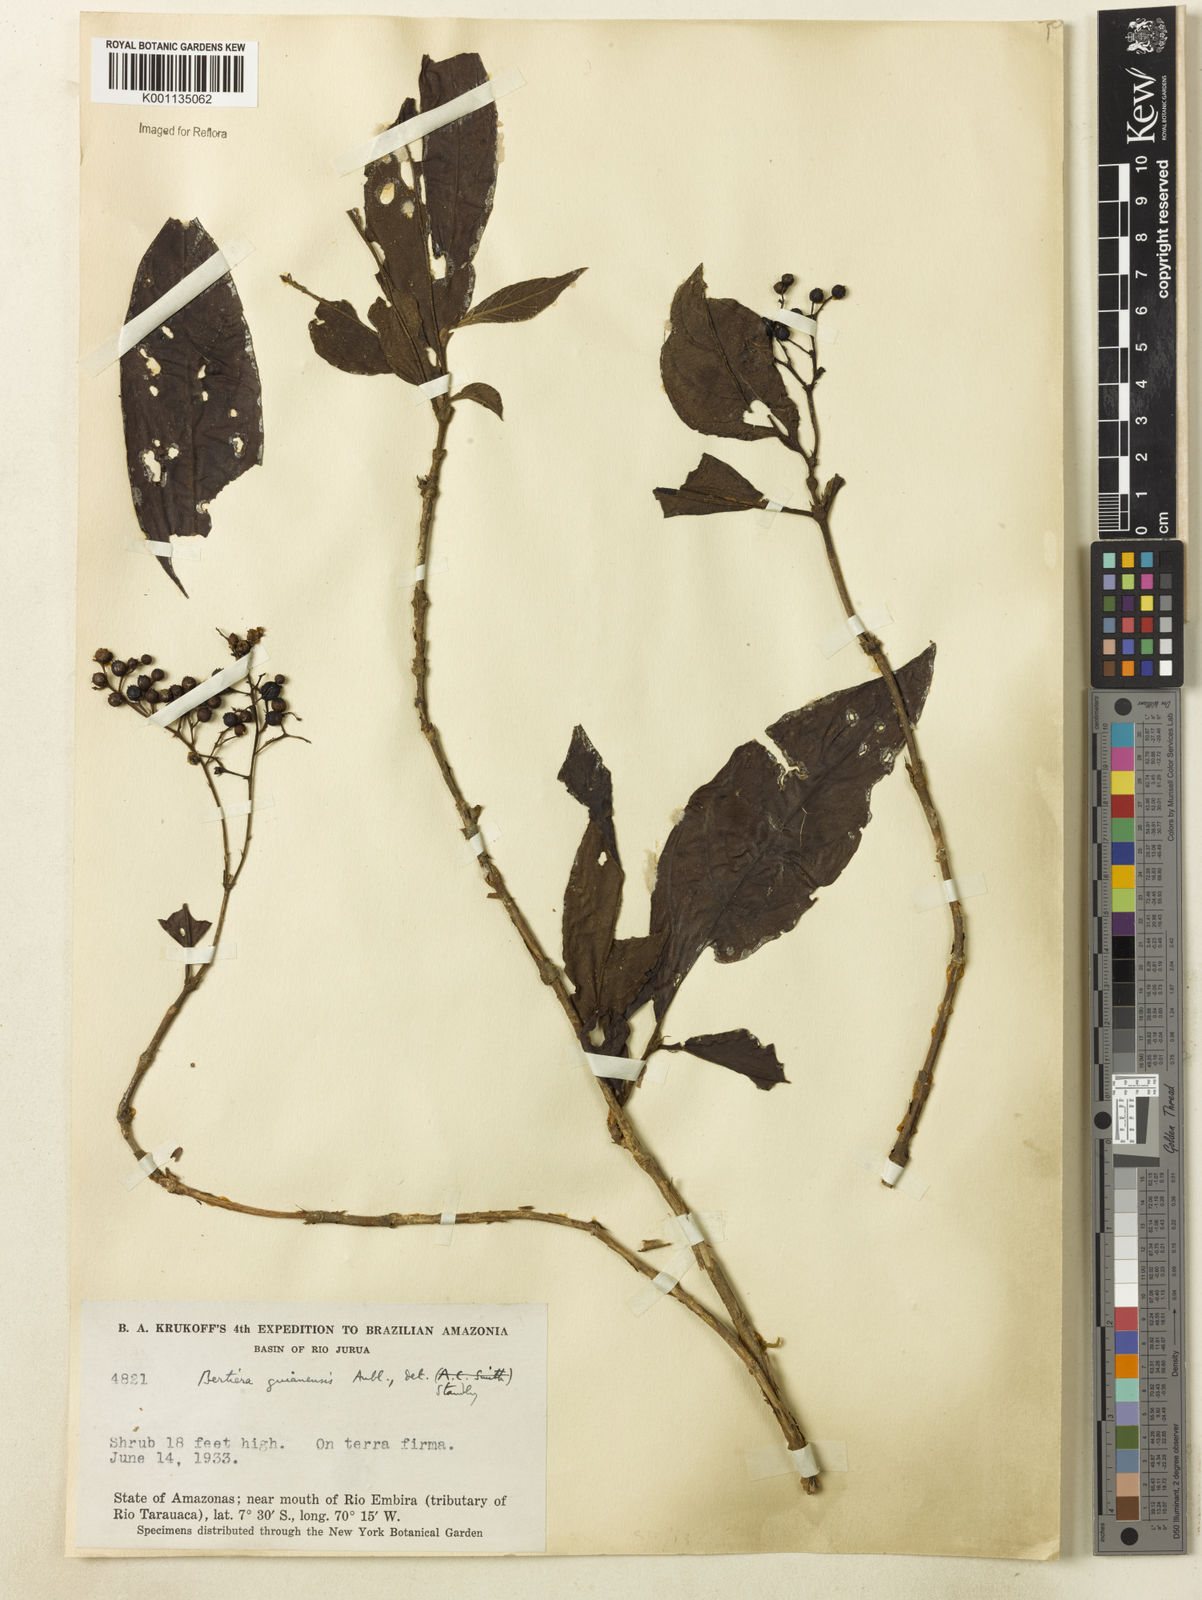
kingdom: Plantae
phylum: Tracheophyta
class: Magnoliopsida
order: Gentianales
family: Rubiaceae
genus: Bertiera
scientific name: Bertiera guianensis
